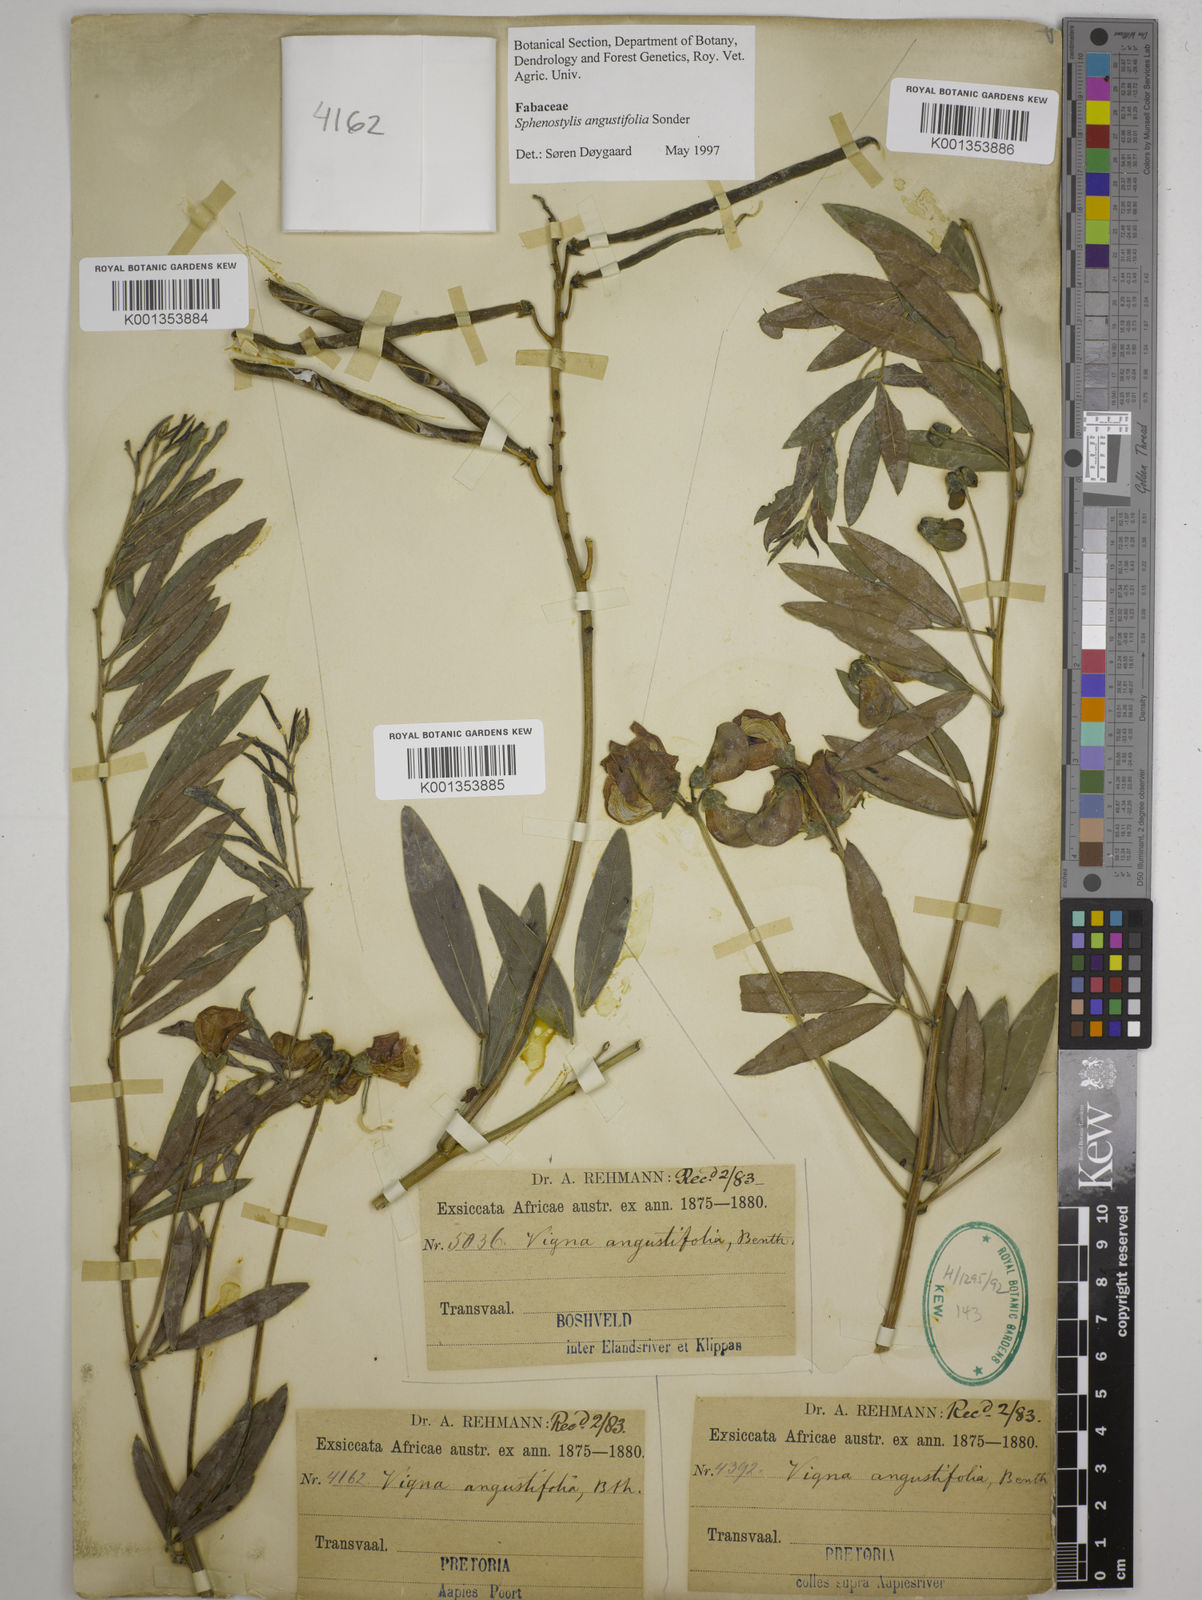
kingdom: Plantae
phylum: Tracheophyta
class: Magnoliopsida
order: Fabales
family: Fabaceae
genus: Sphenostylis
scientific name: Sphenostylis angustifolia
